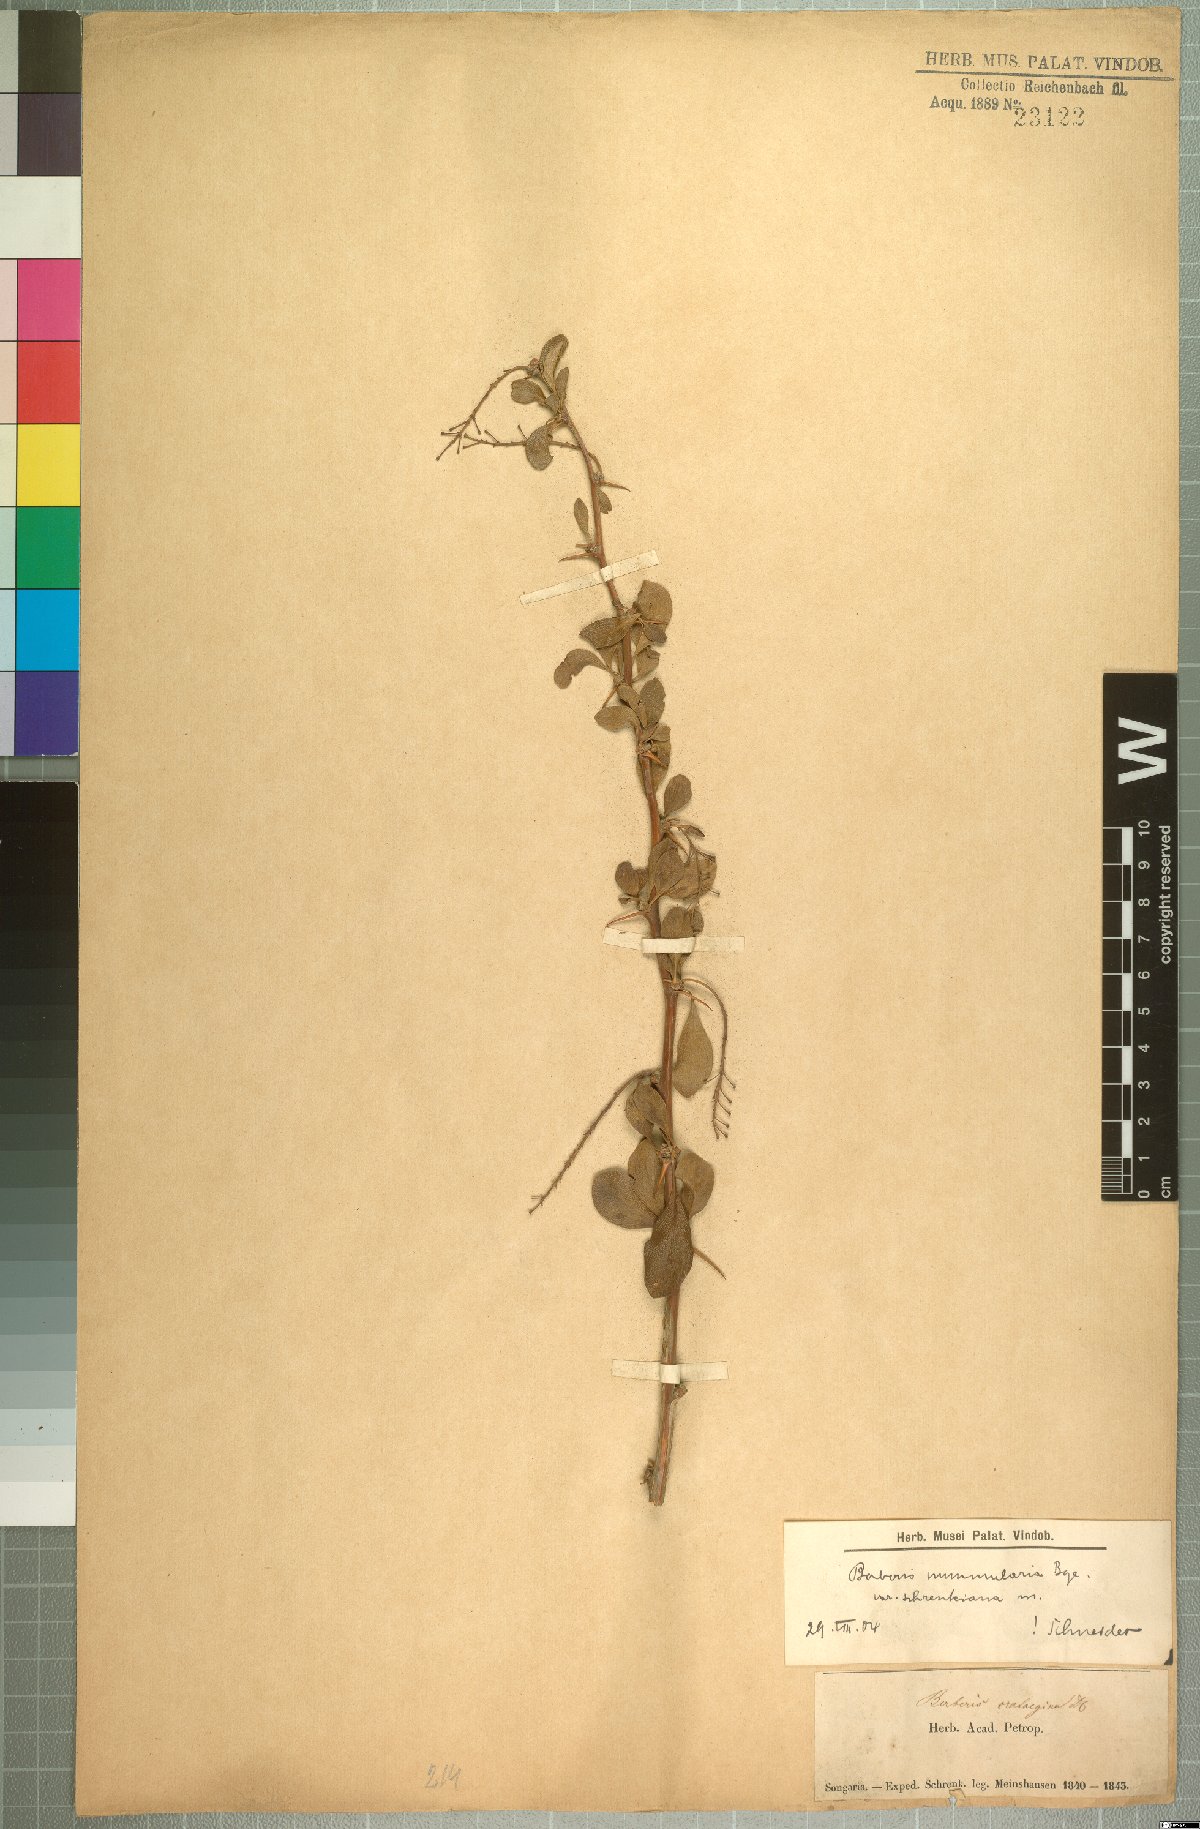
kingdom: Plantae
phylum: Tracheophyta
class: Magnoliopsida
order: Ranunculales
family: Berberidaceae
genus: Berberis
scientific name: Berberis integerrima
